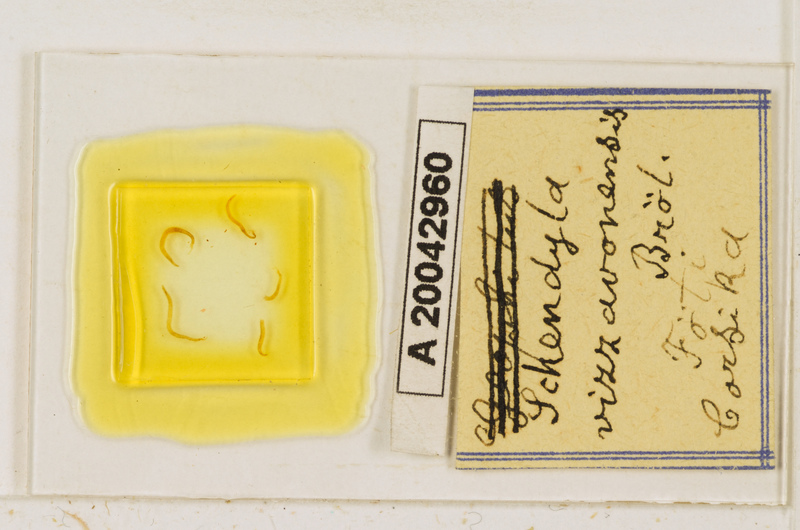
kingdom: Animalia
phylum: Arthropoda
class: Chilopoda
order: Geophilomorpha
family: Schendylidae
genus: Schendyla
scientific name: Schendyla vizzavonae
